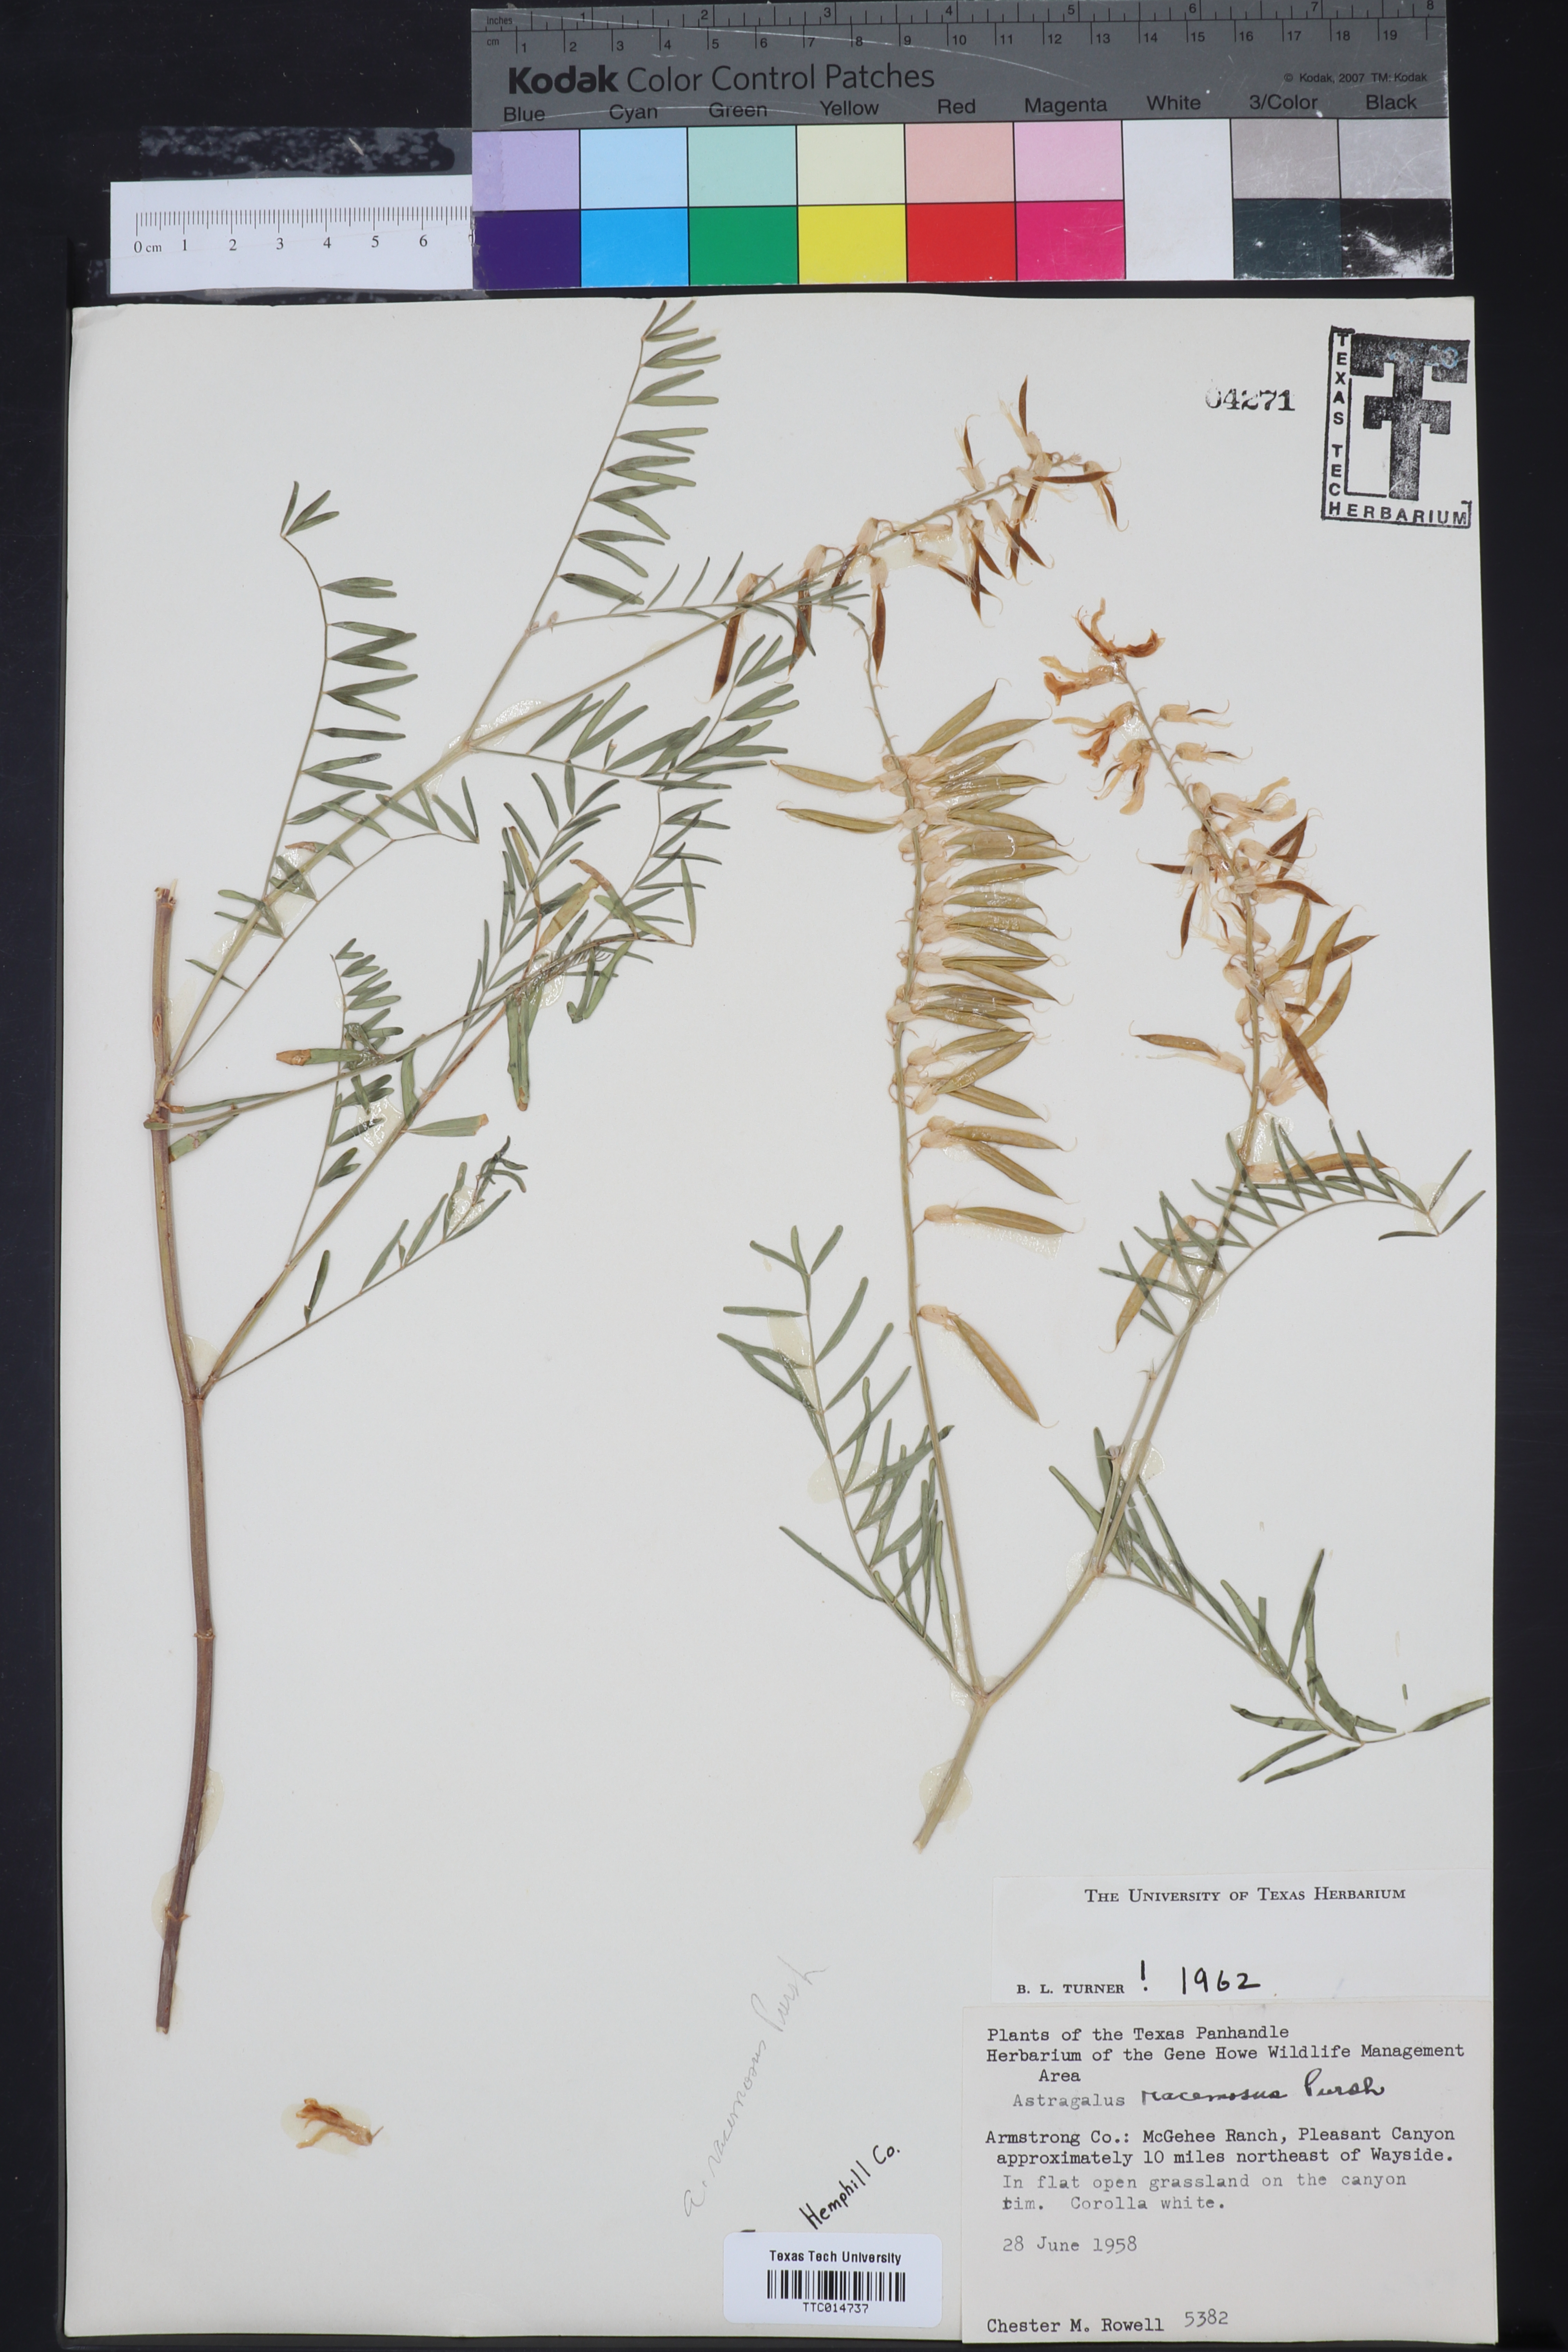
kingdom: Plantae
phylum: Tracheophyta
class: Magnoliopsida
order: Fabales
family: Fabaceae
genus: Astragalus
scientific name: Astragalus racemosus
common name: Alkali milk-vetch
